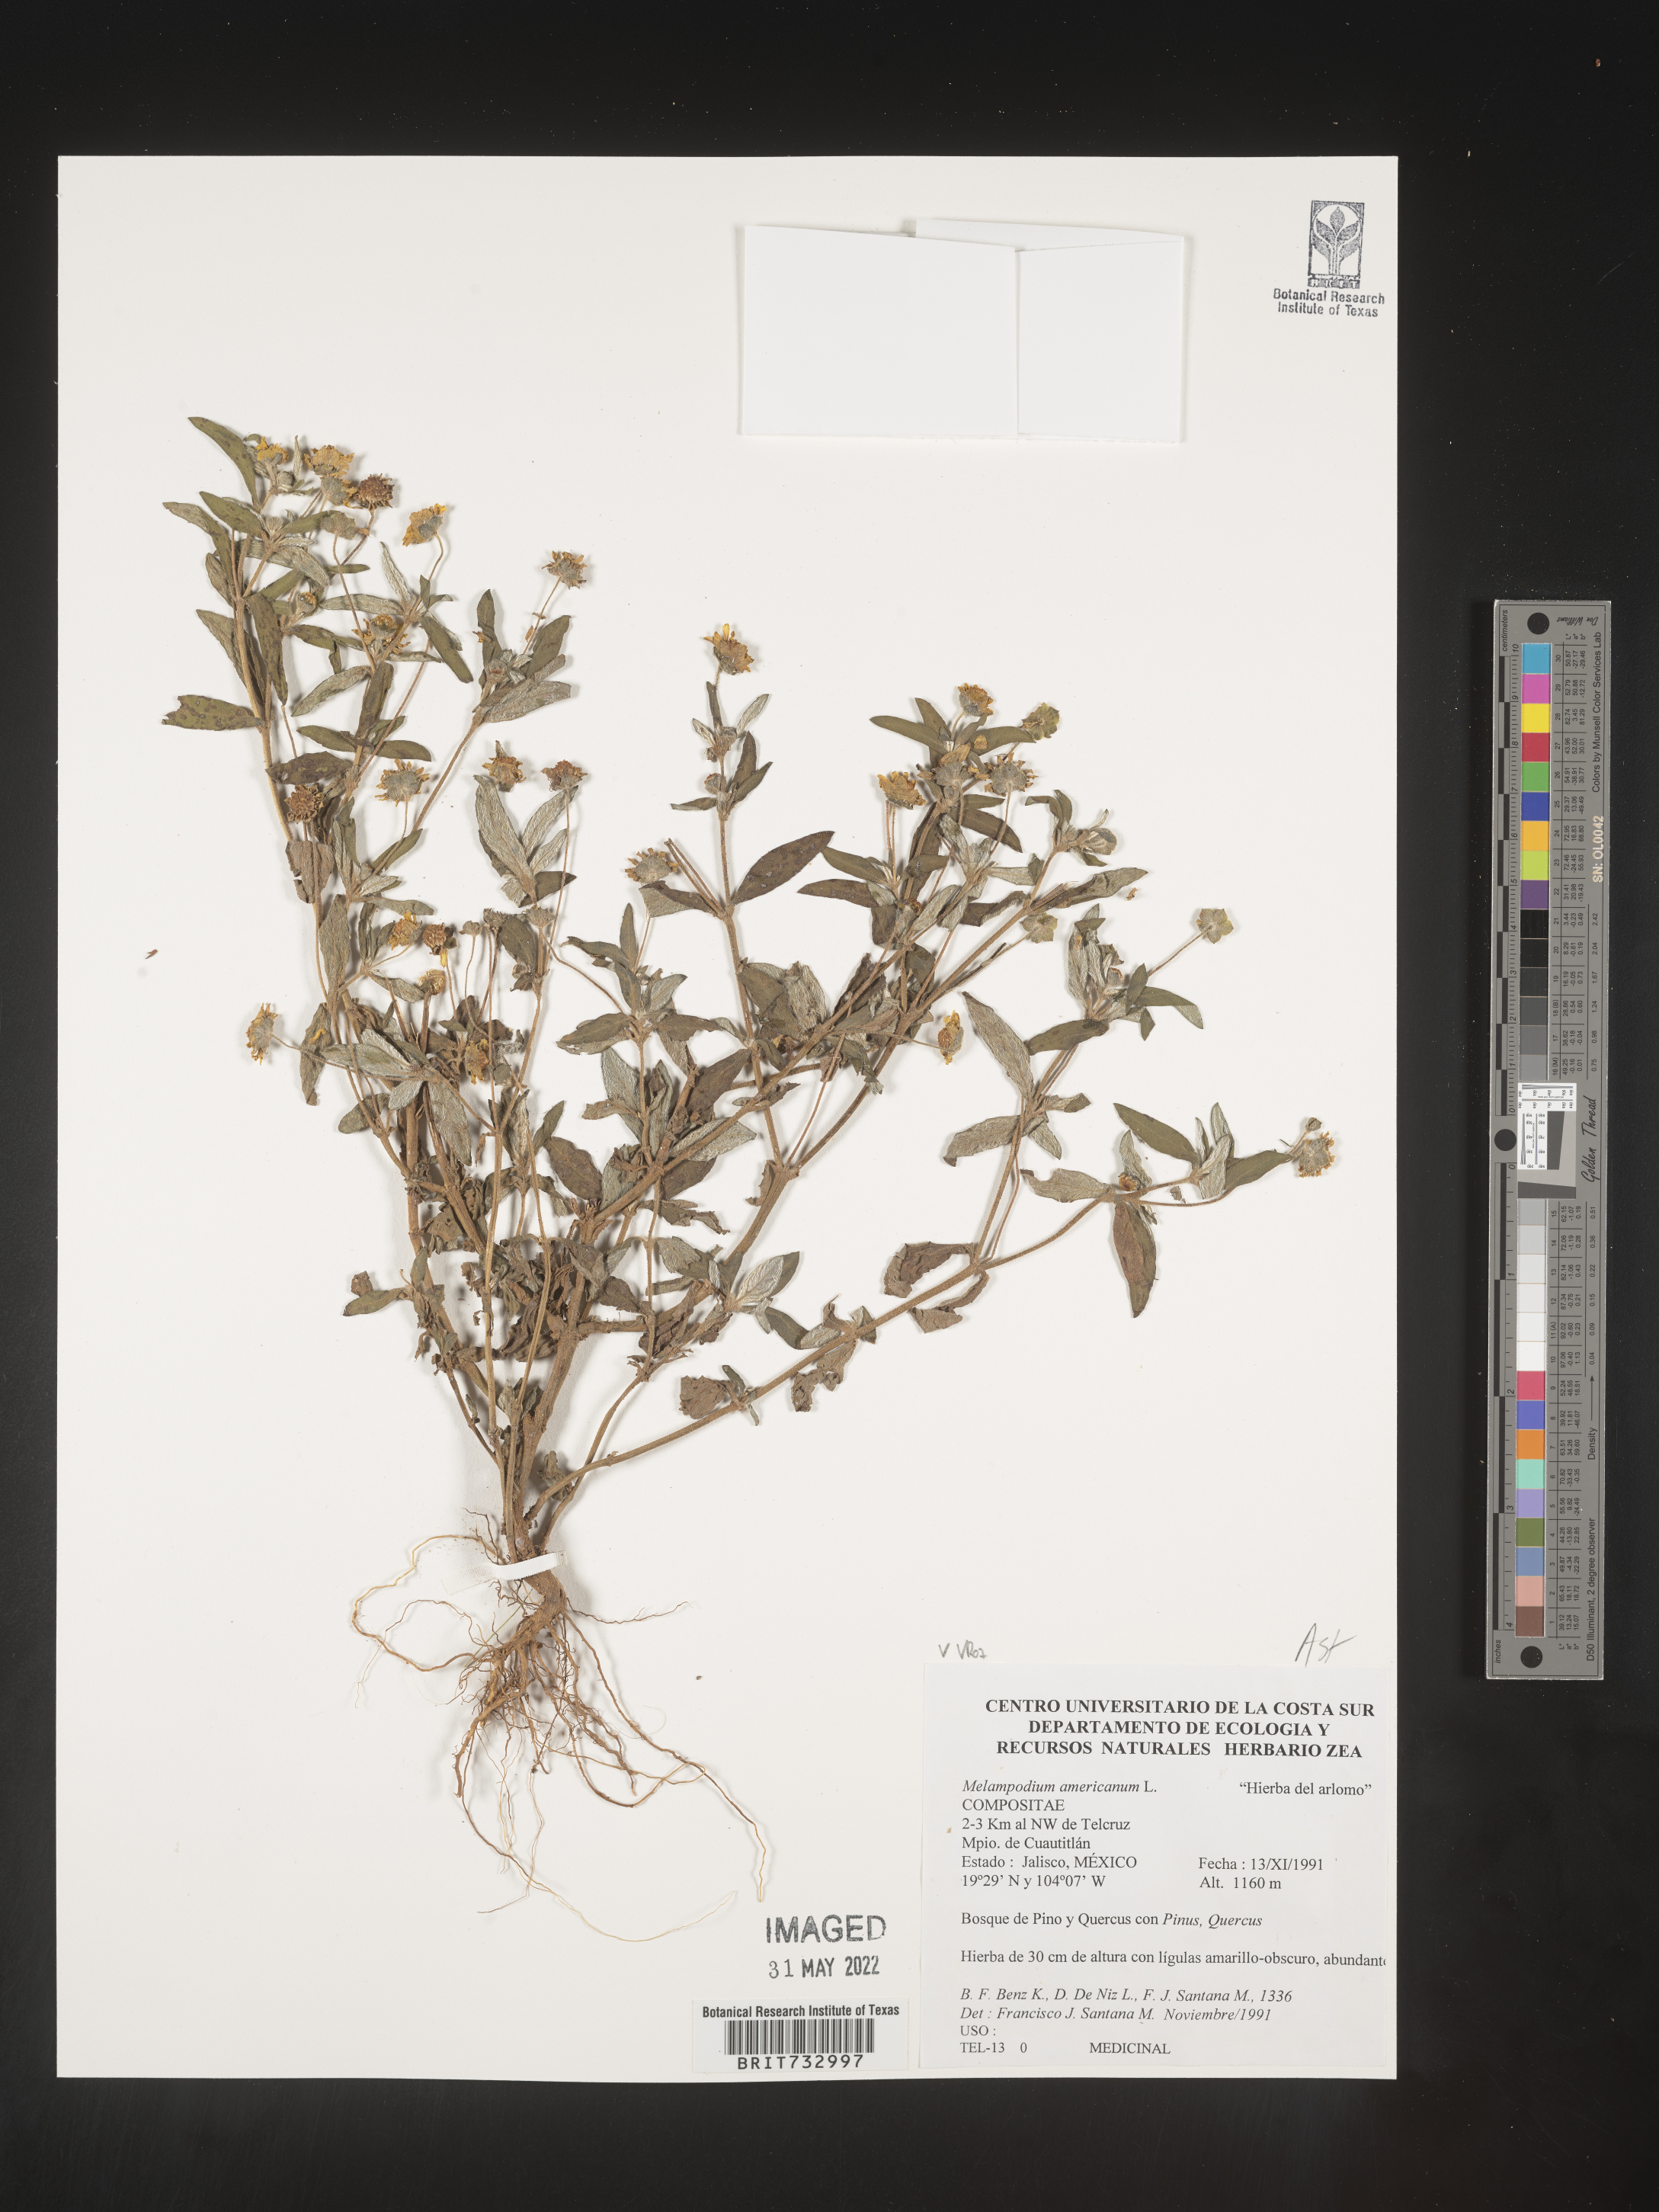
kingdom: Plantae
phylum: Tracheophyta
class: Magnoliopsida
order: Asterales
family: Asteraceae
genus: Melampodium
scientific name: Melampodium
